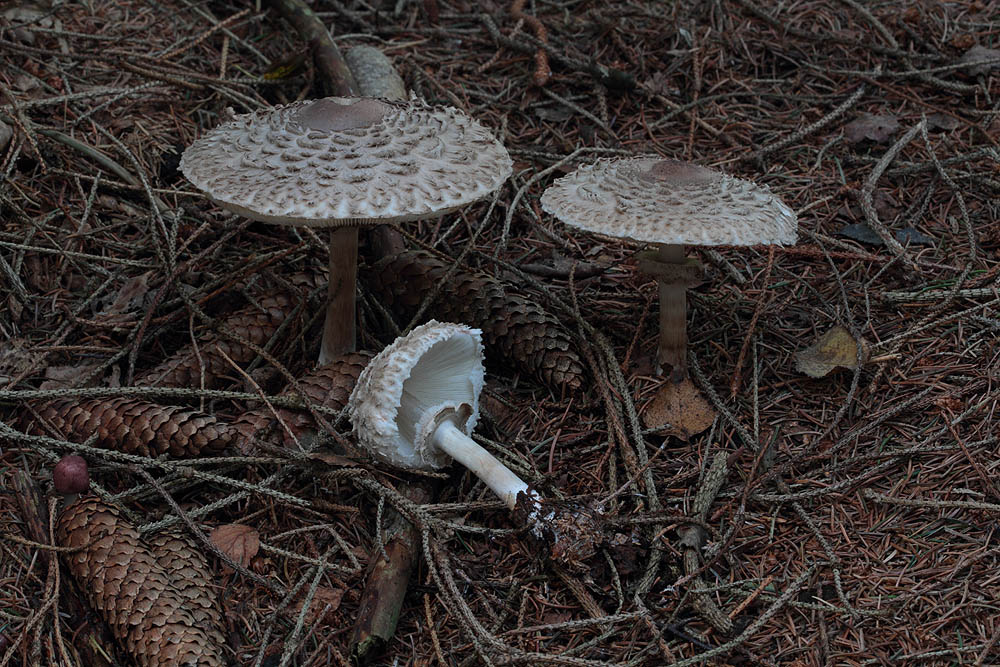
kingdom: Fungi
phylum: Basidiomycota
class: Agaricomycetes
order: Agaricales
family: Agaricaceae
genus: Chlorophyllum
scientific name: Chlorophyllum olivieri
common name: almindelig rabarberhat
